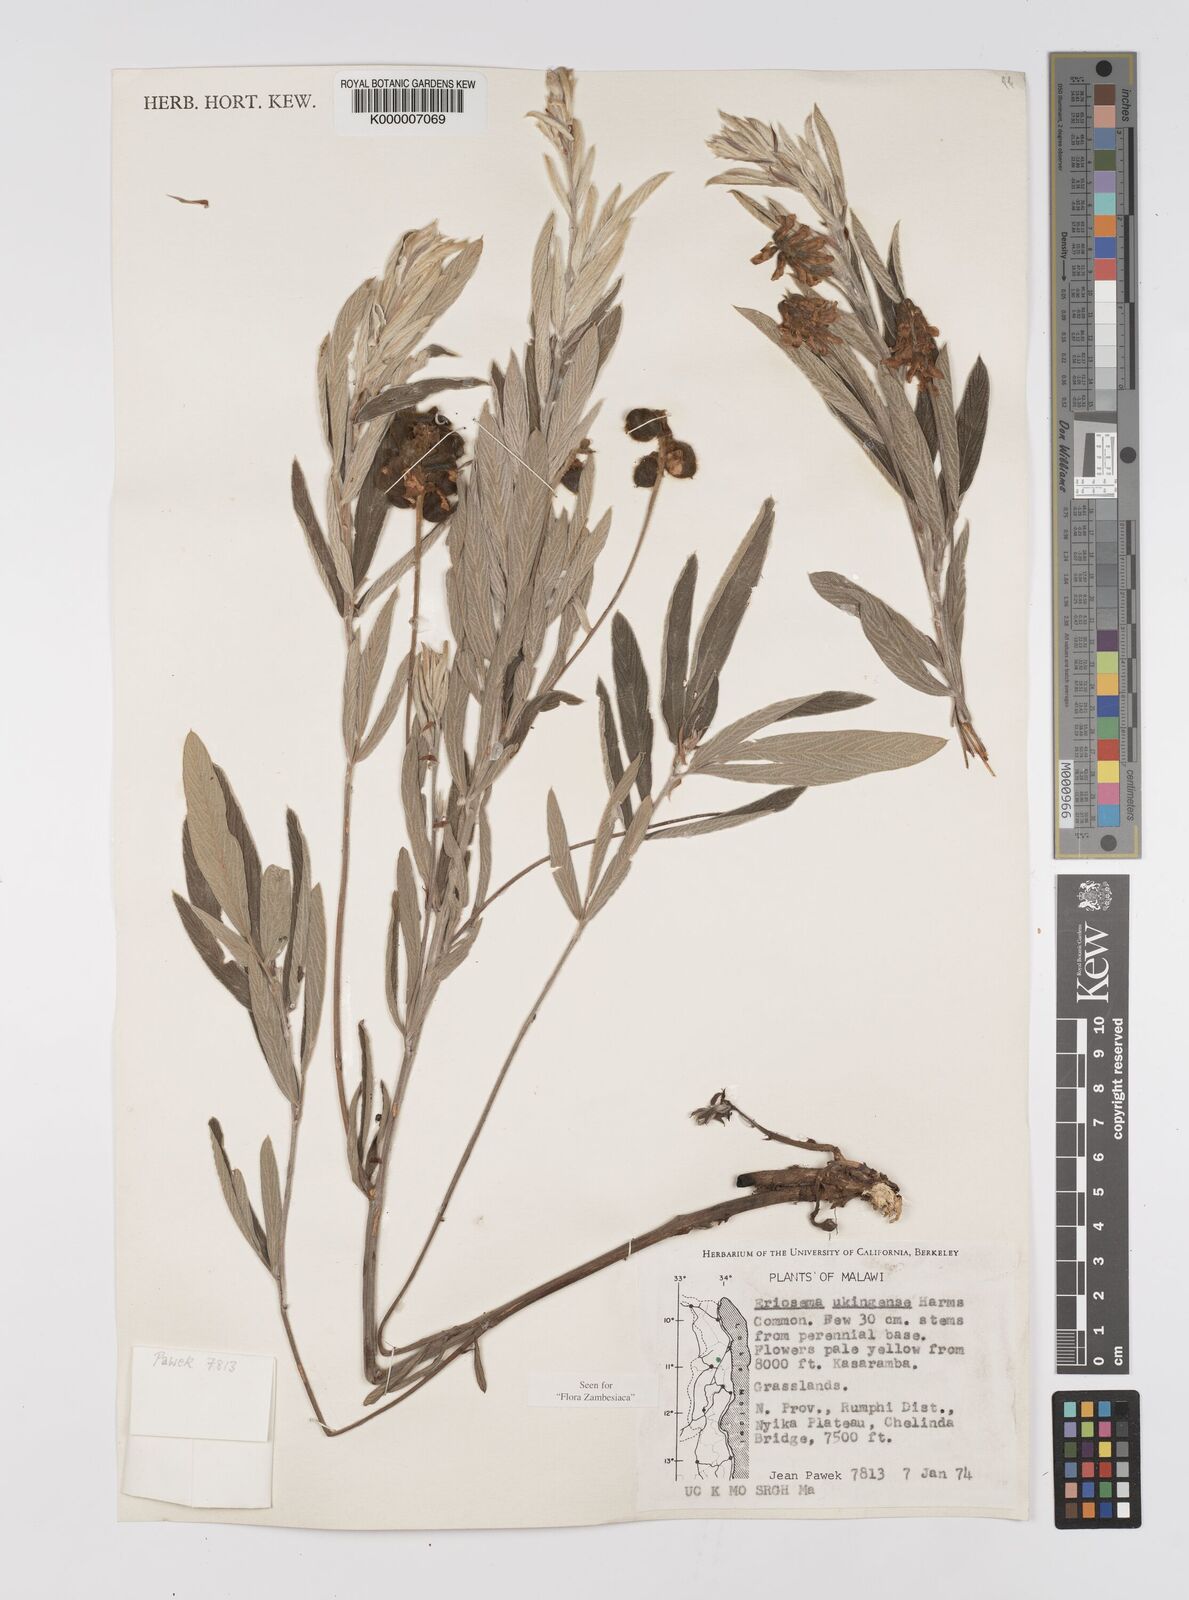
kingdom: Plantae
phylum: Tracheophyta
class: Magnoliopsida
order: Fabales
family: Fabaceae
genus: Eriosema
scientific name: Eriosema ukingense
